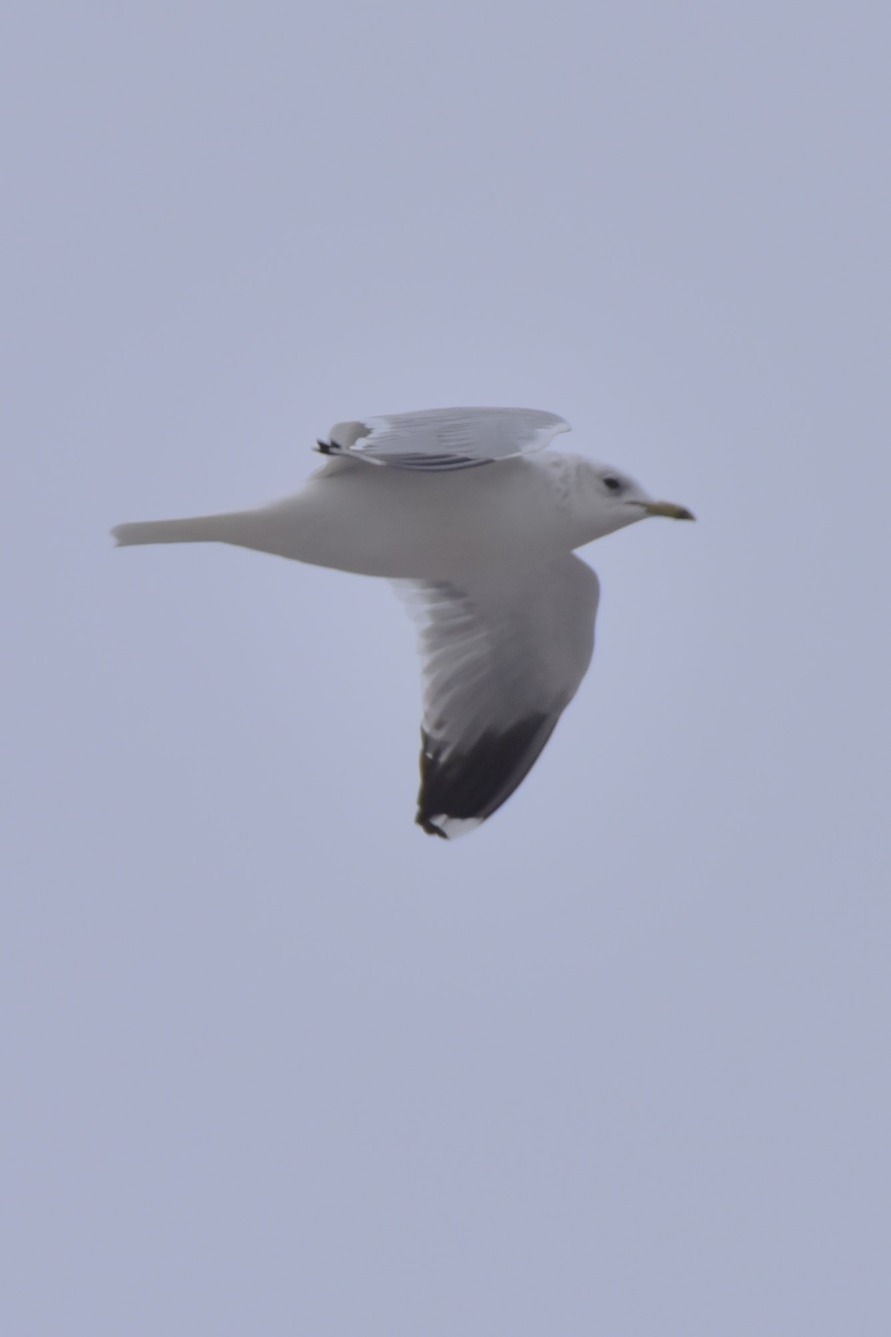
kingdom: Animalia
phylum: Chordata
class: Aves
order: Charadriiformes
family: Laridae
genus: Larus
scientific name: Larus canus
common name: Stormmåge
